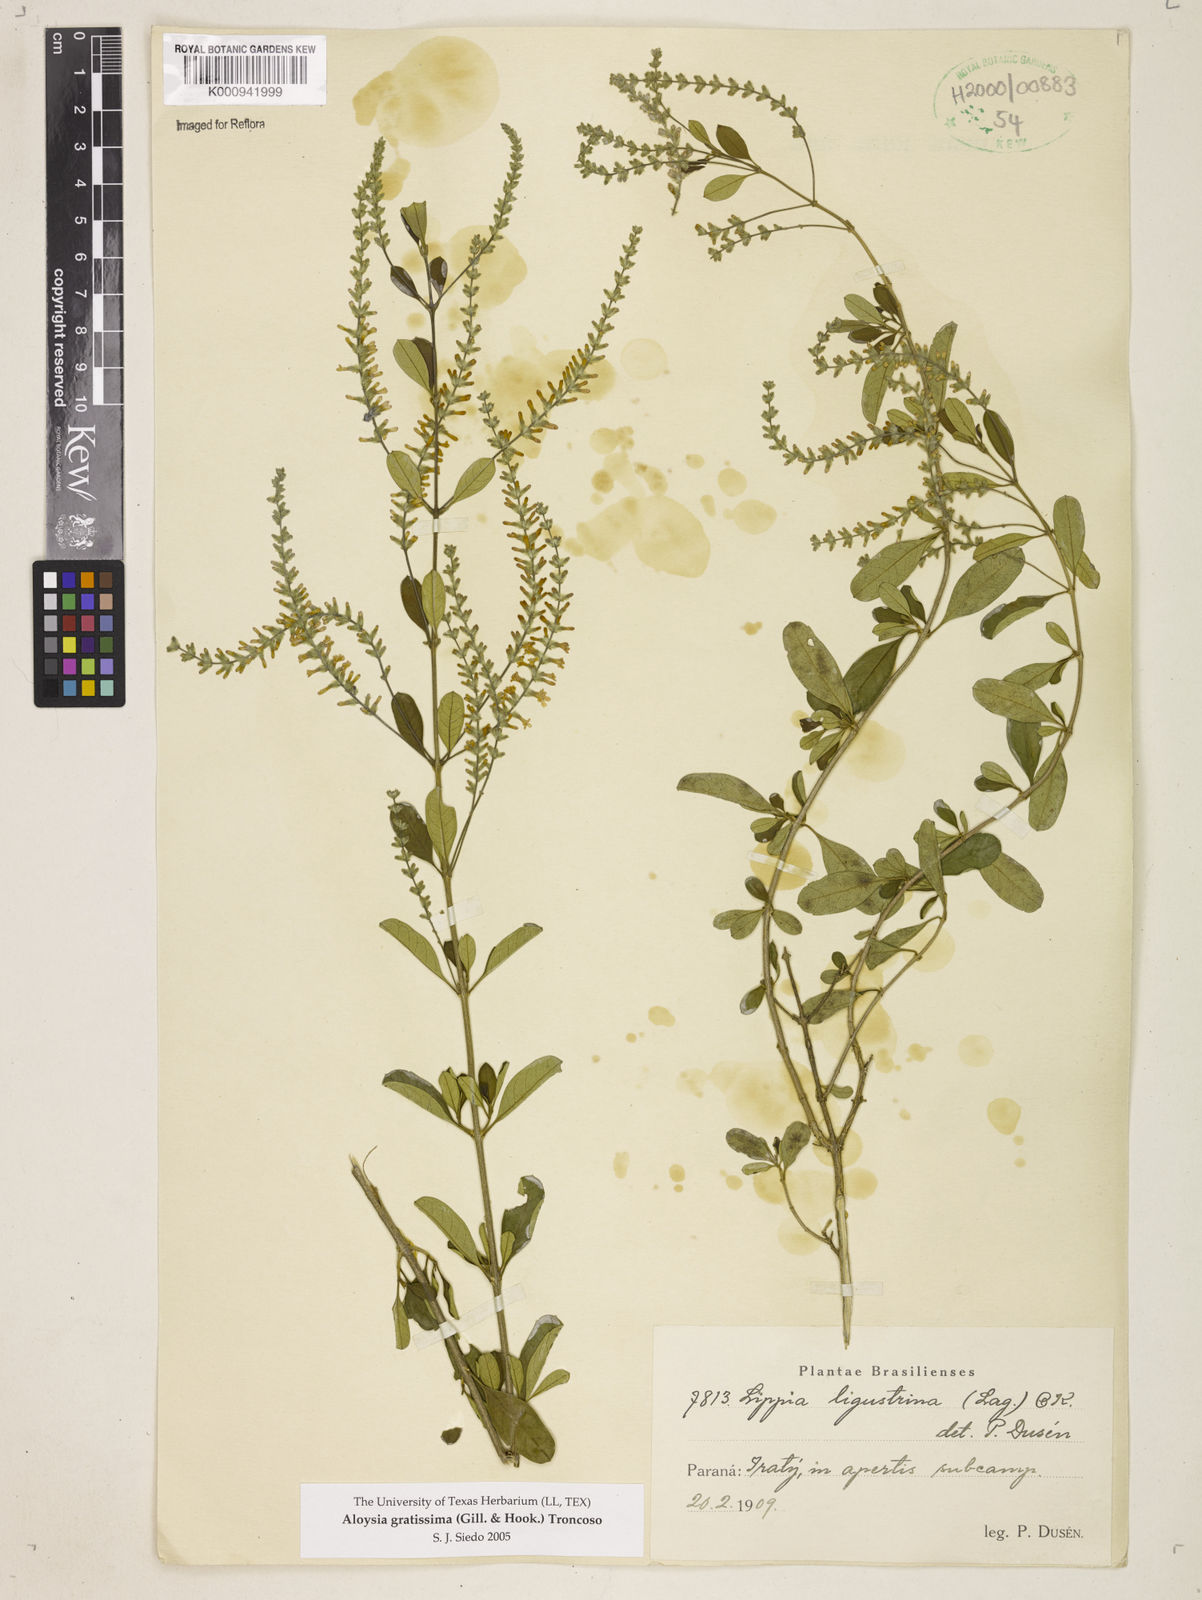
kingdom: Plantae
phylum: Tracheophyta
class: Magnoliopsida
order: Lamiales
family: Verbenaceae
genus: Aloysia
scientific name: Aloysia gratissima
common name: Common bee-brush
